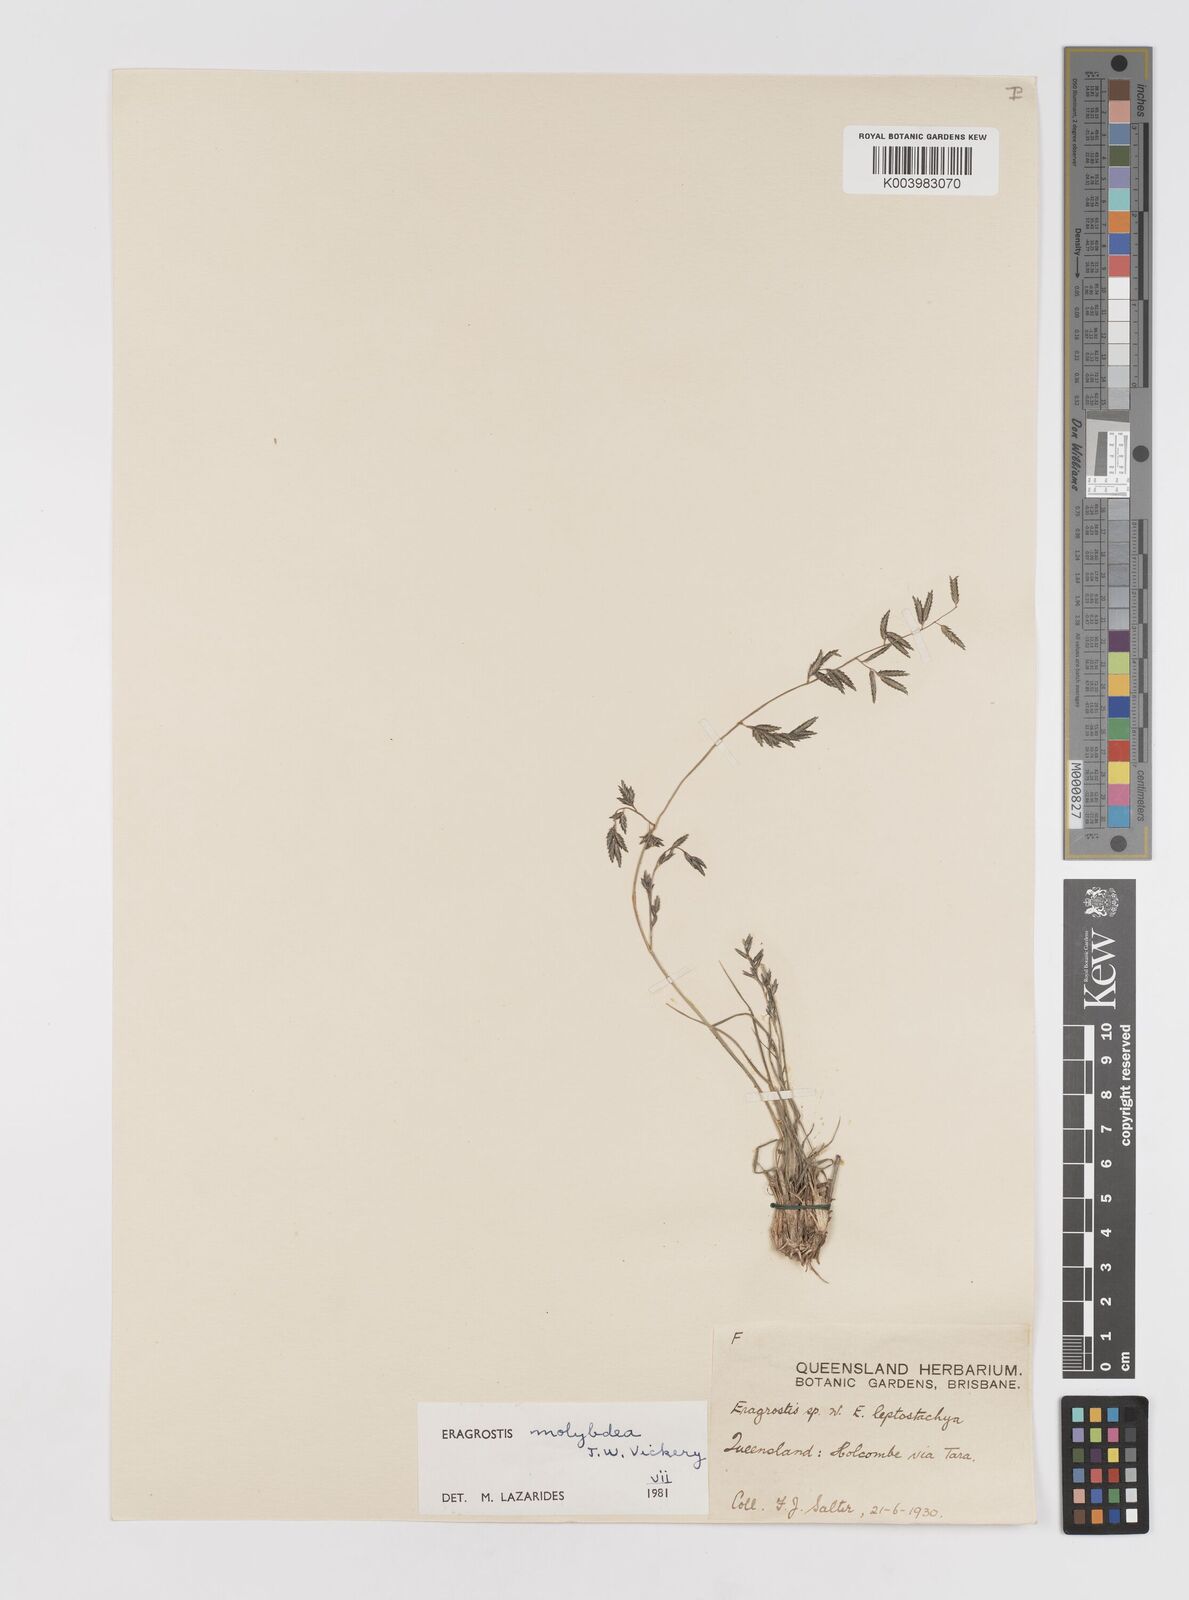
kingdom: Plantae
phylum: Tracheophyta
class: Liliopsida
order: Poales
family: Poaceae
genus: Eragrostis
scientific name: Eragrostis leptostachya
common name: Australian lovegrass
